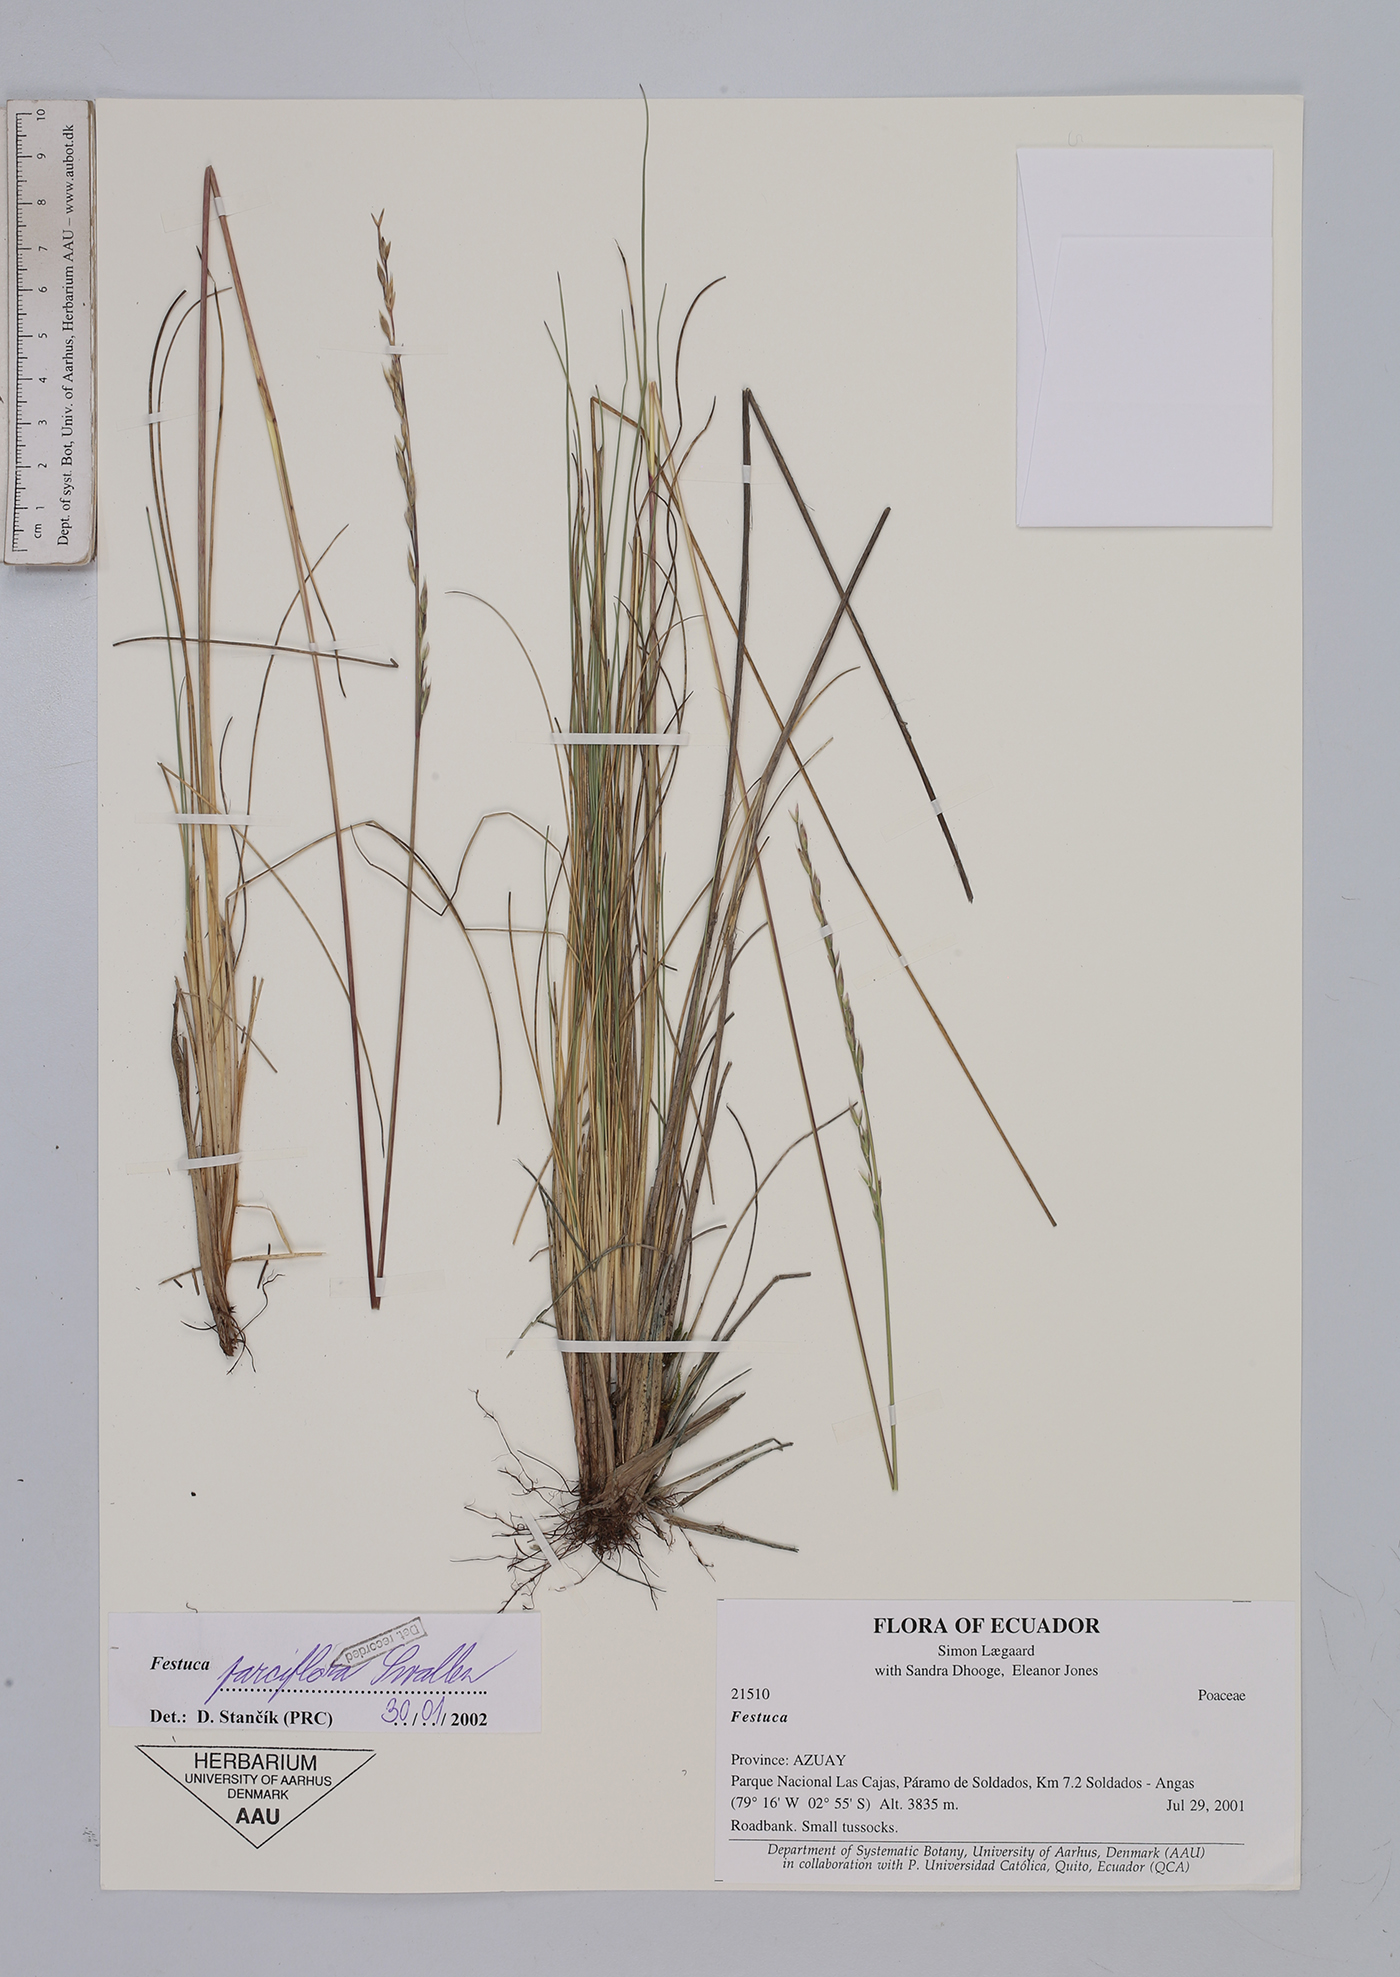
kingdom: Plantae
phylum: Tracheophyta
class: Liliopsida
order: Poales
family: Poaceae
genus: Festuca
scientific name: Festuca parciflora
